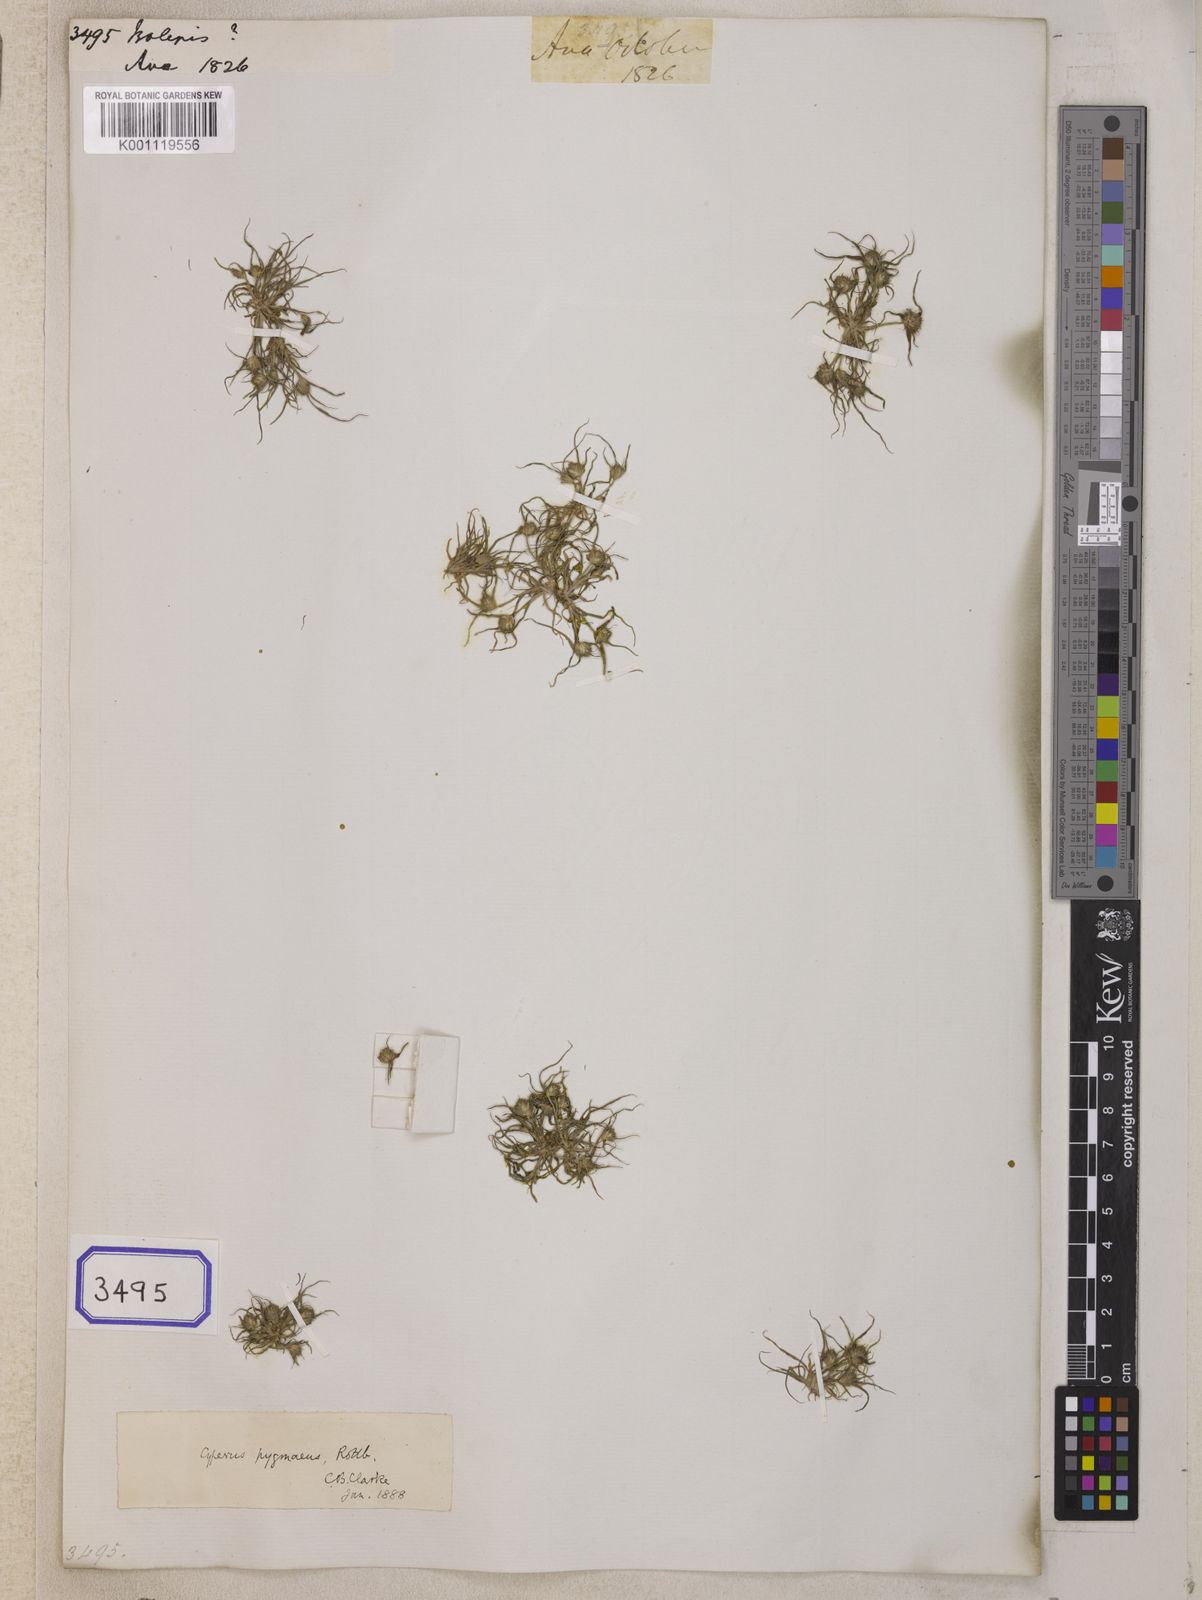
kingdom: Plantae
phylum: Tracheophyta
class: Liliopsida
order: Poales
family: Cyperaceae
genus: Isolepis
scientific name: Isolepis
